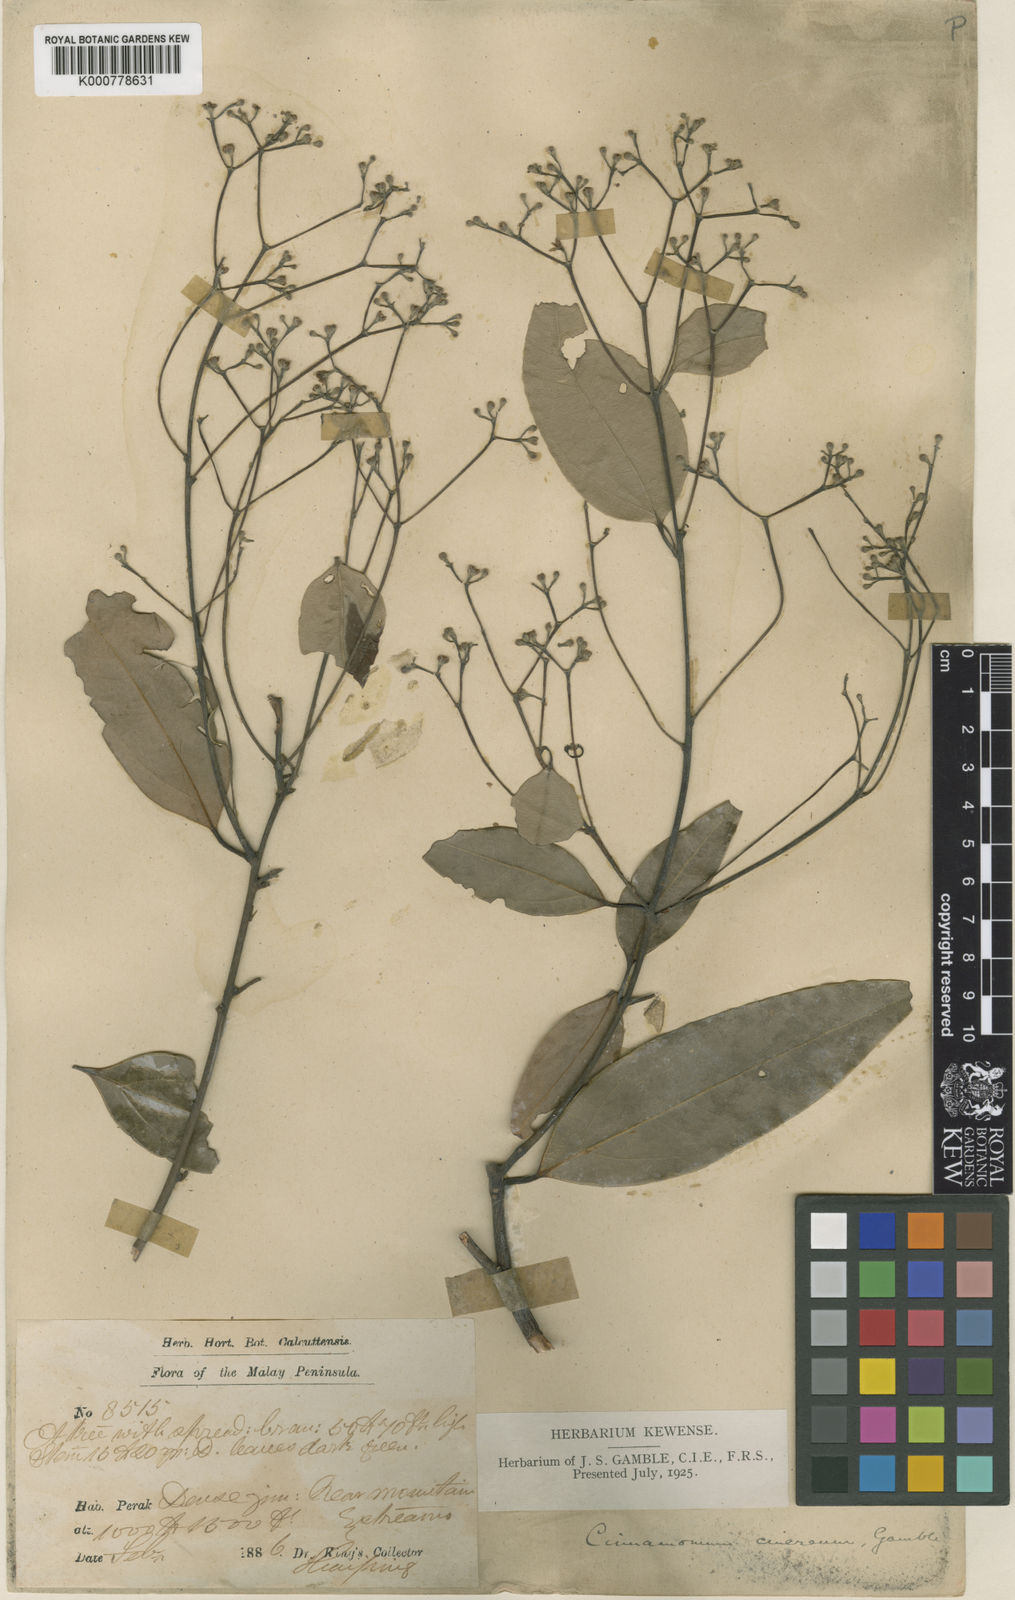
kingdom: Plantae
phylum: Tracheophyta
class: Magnoliopsida
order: Laurales
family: Lauraceae
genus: Cinnamomum
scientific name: Cinnamomum sintoc
